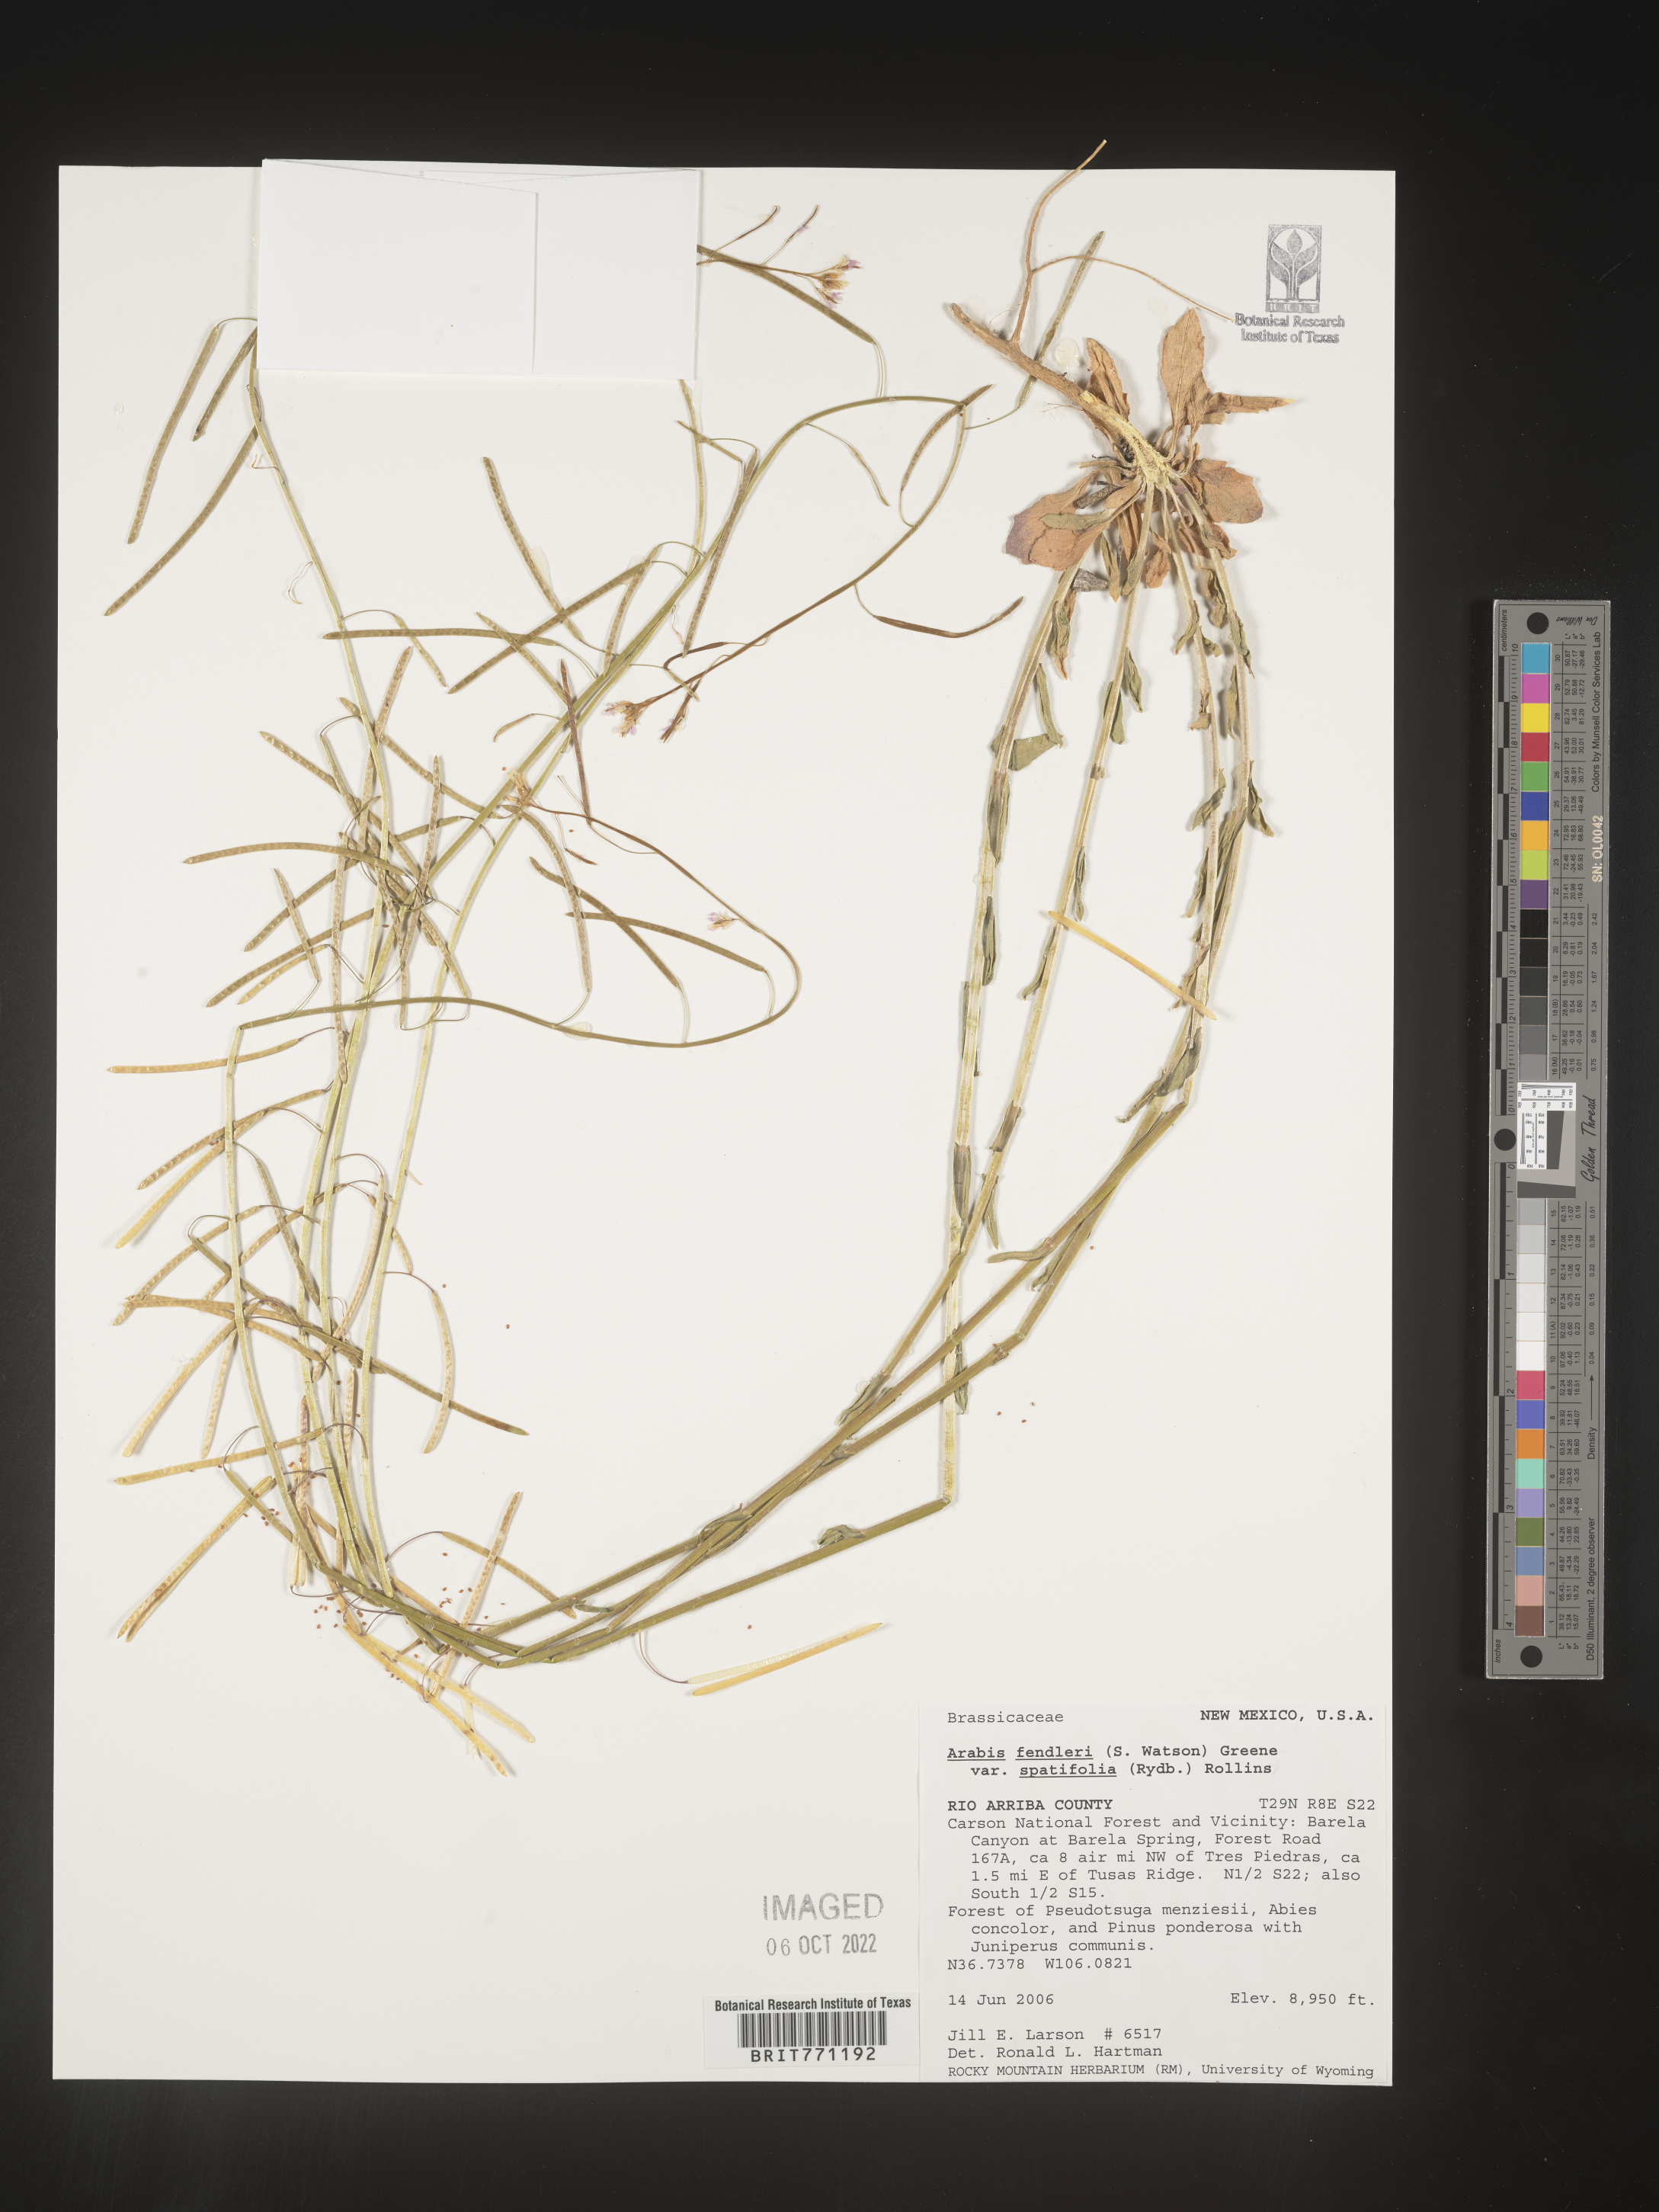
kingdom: Plantae
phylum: Tracheophyta
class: Magnoliopsida
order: Brassicales
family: Brassicaceae
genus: Arabis
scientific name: Arabis
